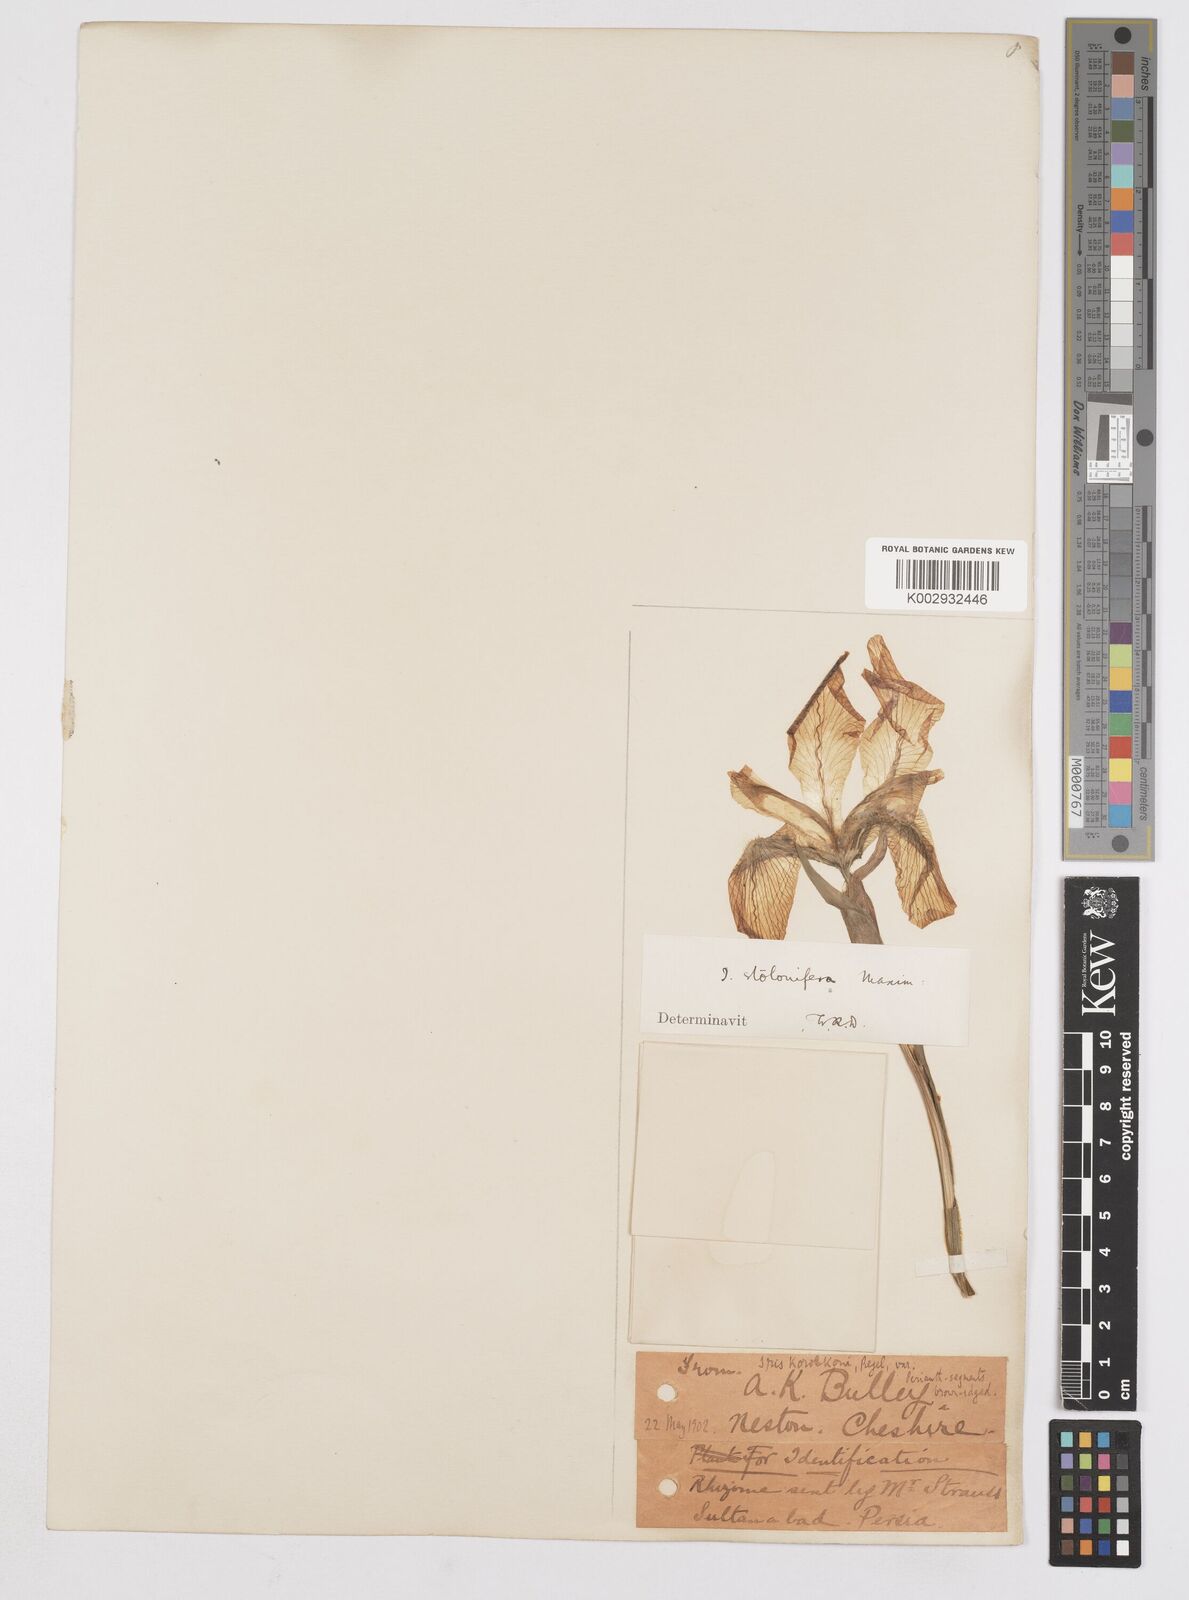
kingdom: Plantae
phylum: Tracheophyta
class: Liliopsida
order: Asparagales
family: Iridaceae
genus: Iris
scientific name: Iris stolonifera
